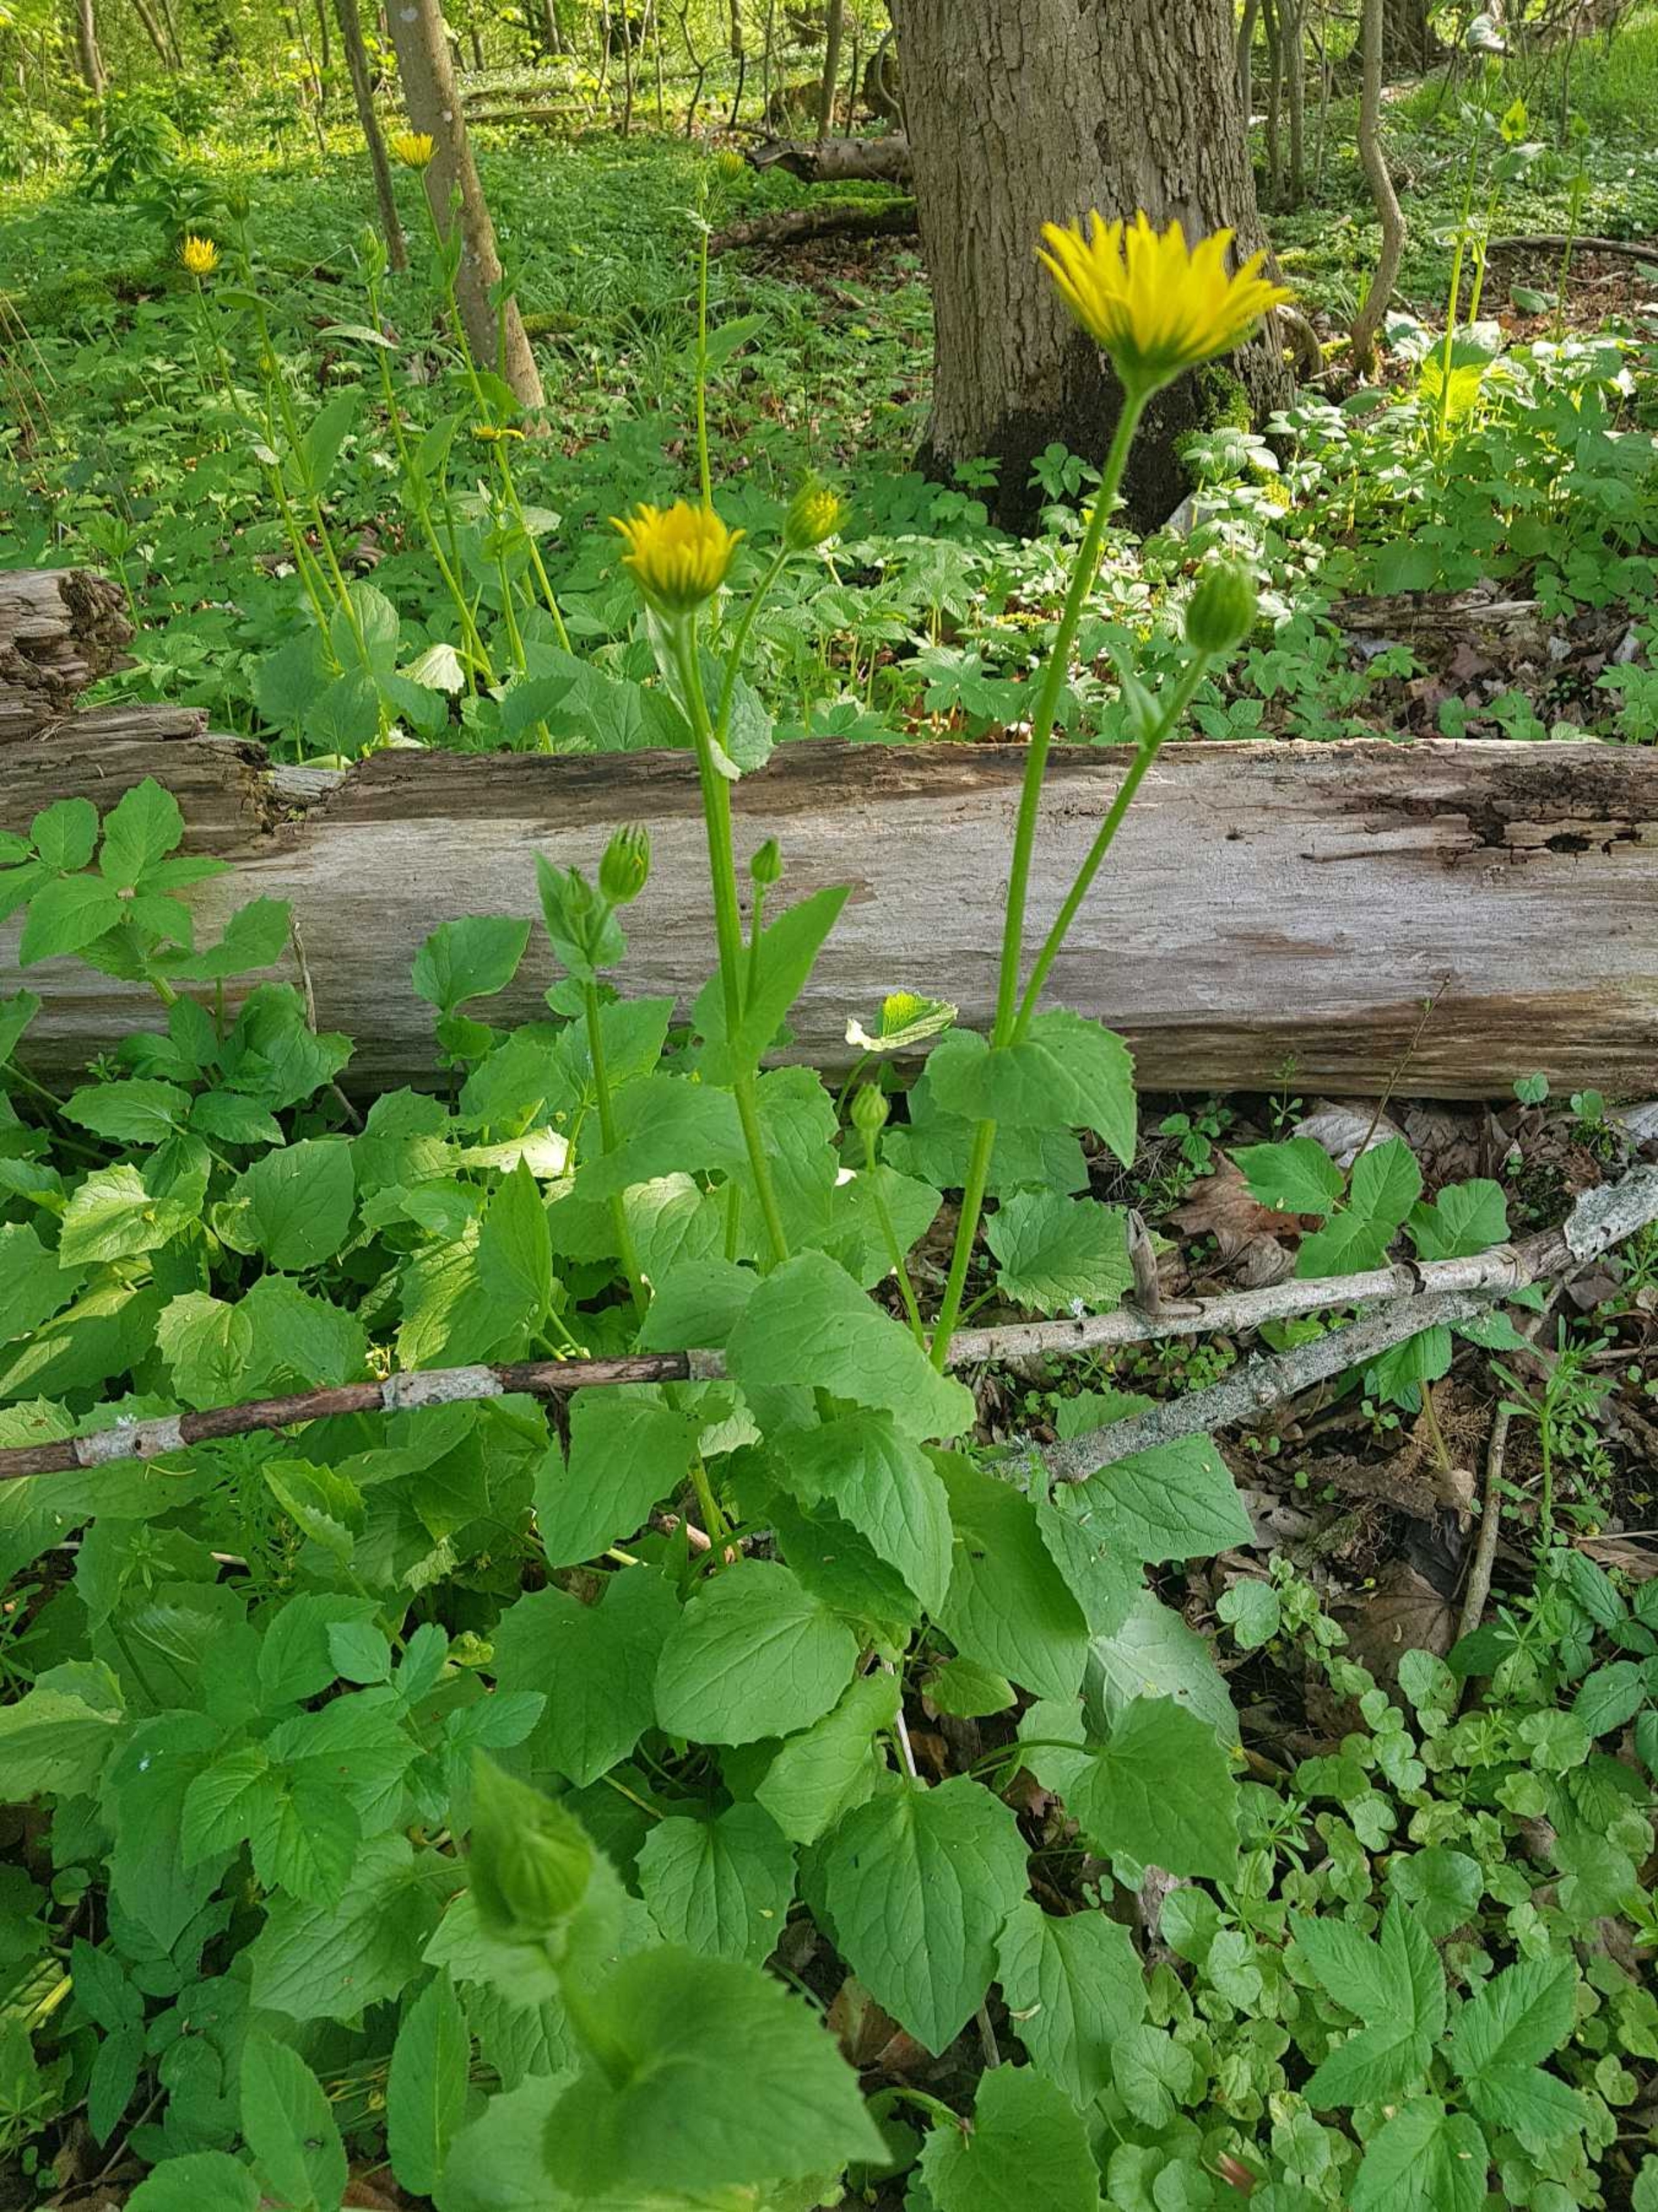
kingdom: Plantae
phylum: Tracheophyta
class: Magnoliopsida
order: Asterales
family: Asteraceae
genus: Doronicum
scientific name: Doronicum columnae
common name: Tue-gemserod
